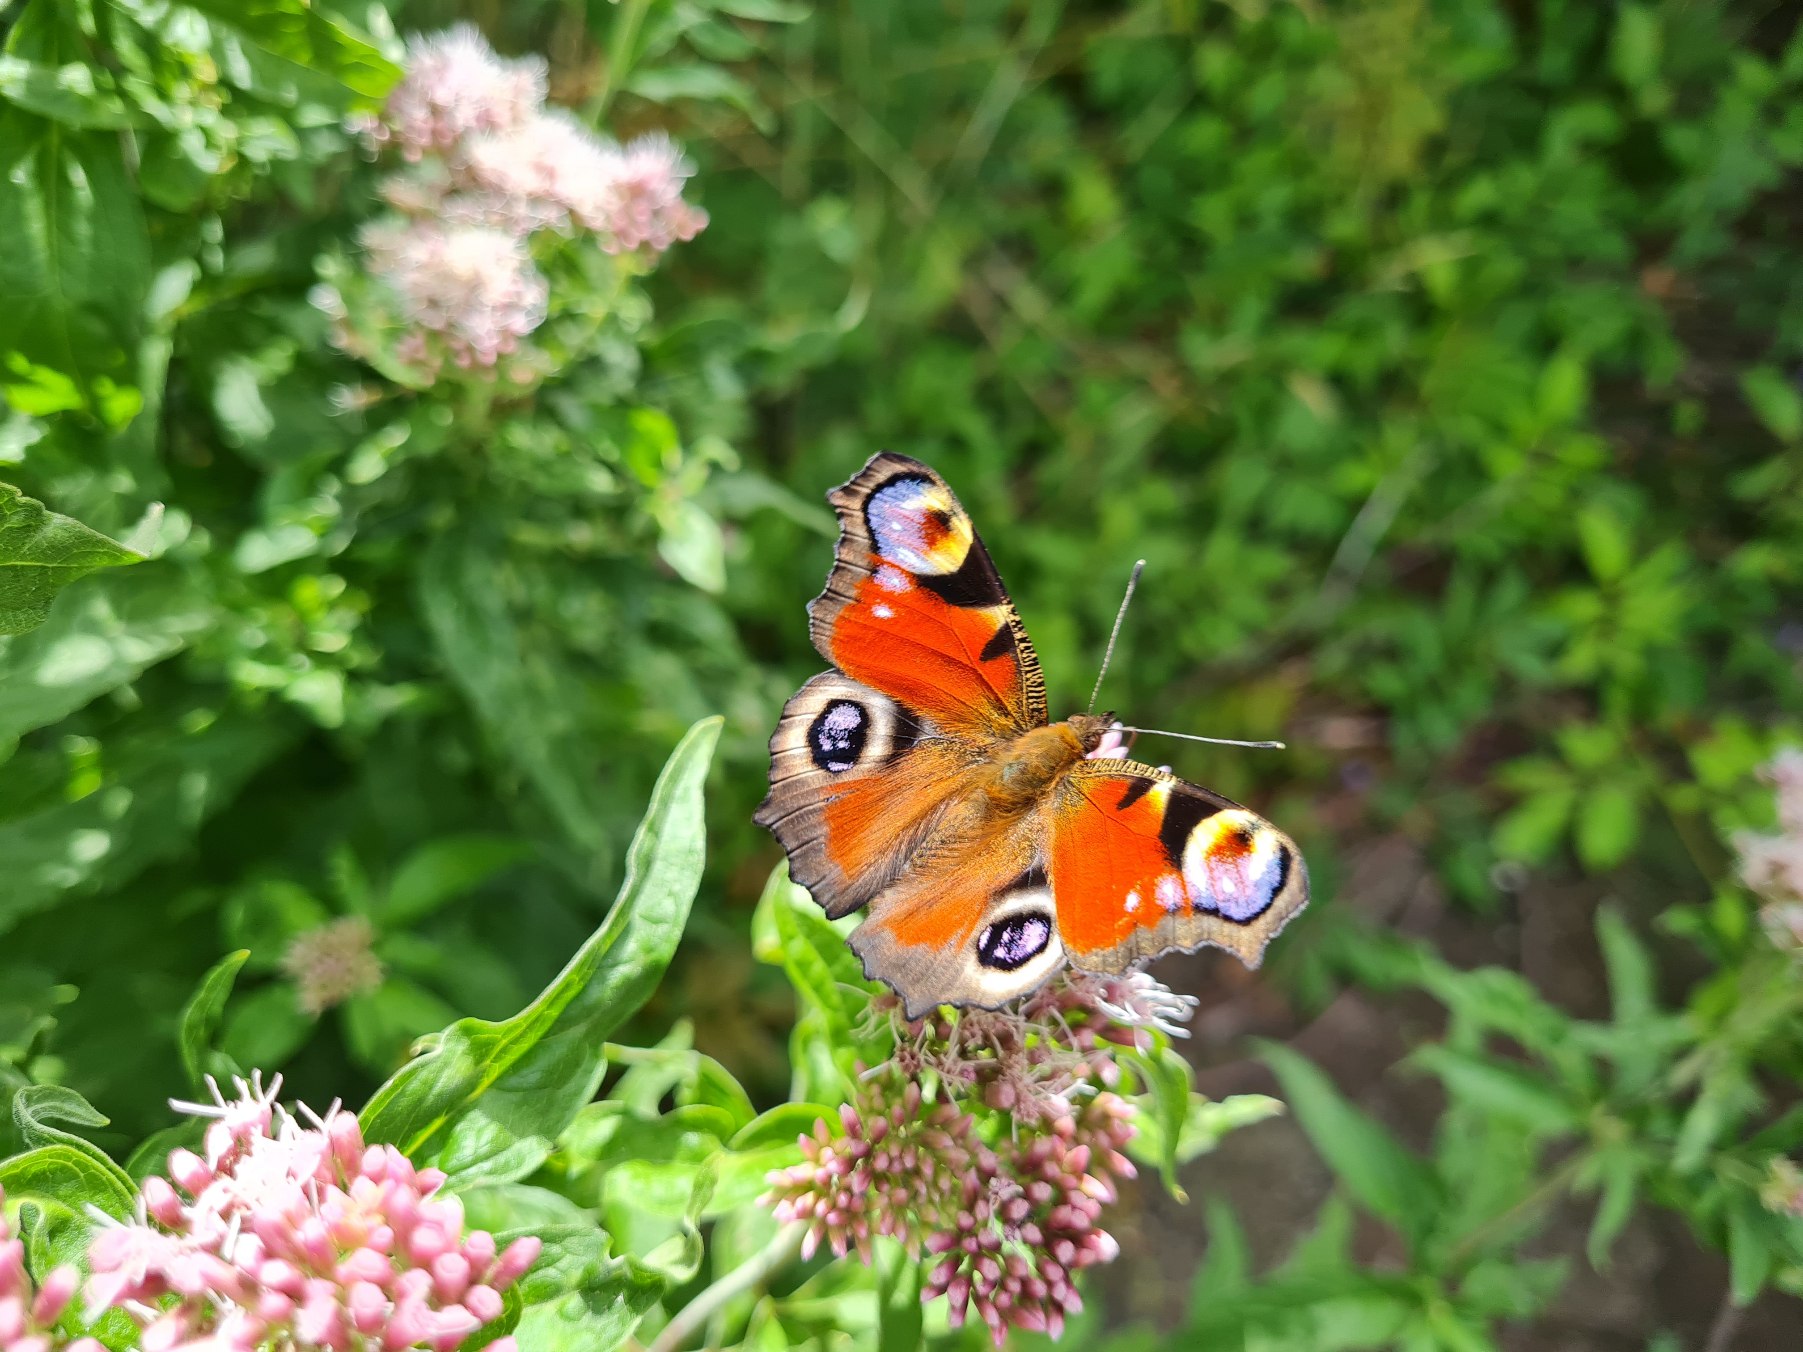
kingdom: Animalia
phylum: Arthropoda
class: Insecta
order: Lepidoptera
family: Nymphalidae
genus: Aglais
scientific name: Aglais io
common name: Dagpåfugleøje
